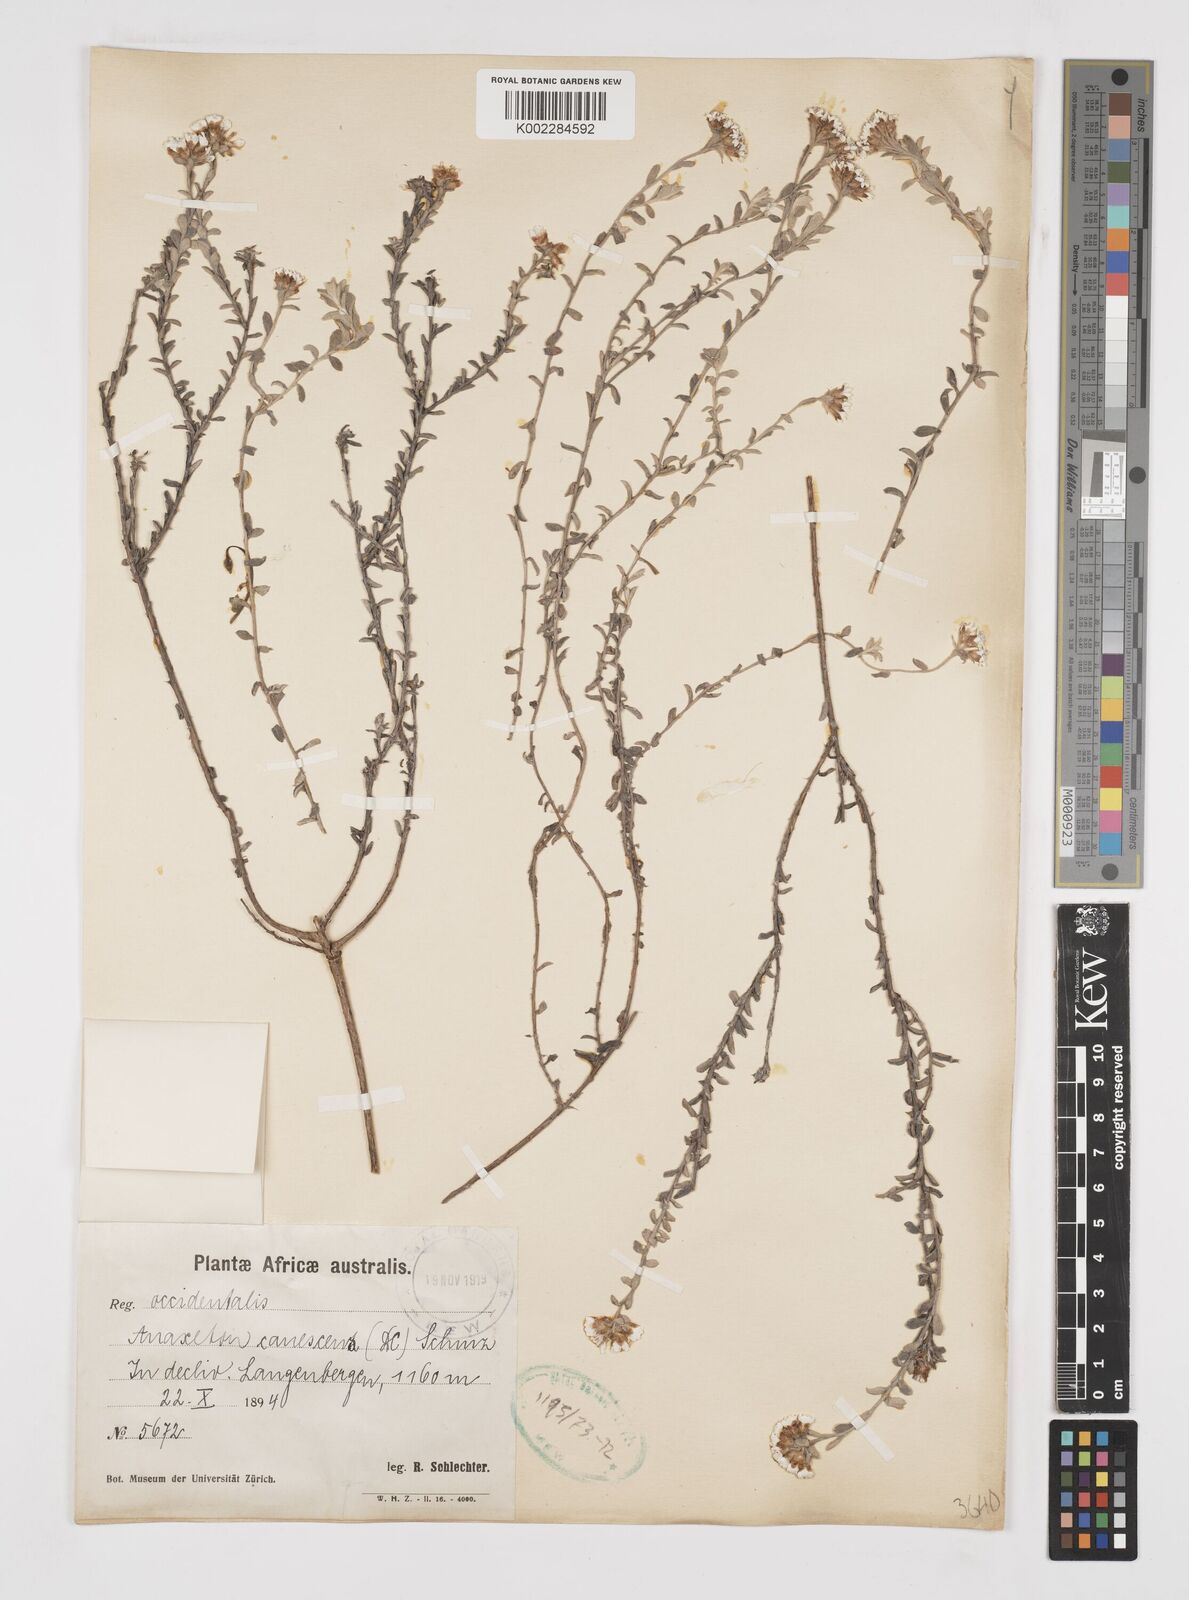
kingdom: Plantae
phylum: Tracheophyta
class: Magnoliopsida
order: Asterales
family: Asteraceae
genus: Langebergia
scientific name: Langebergia canescens
